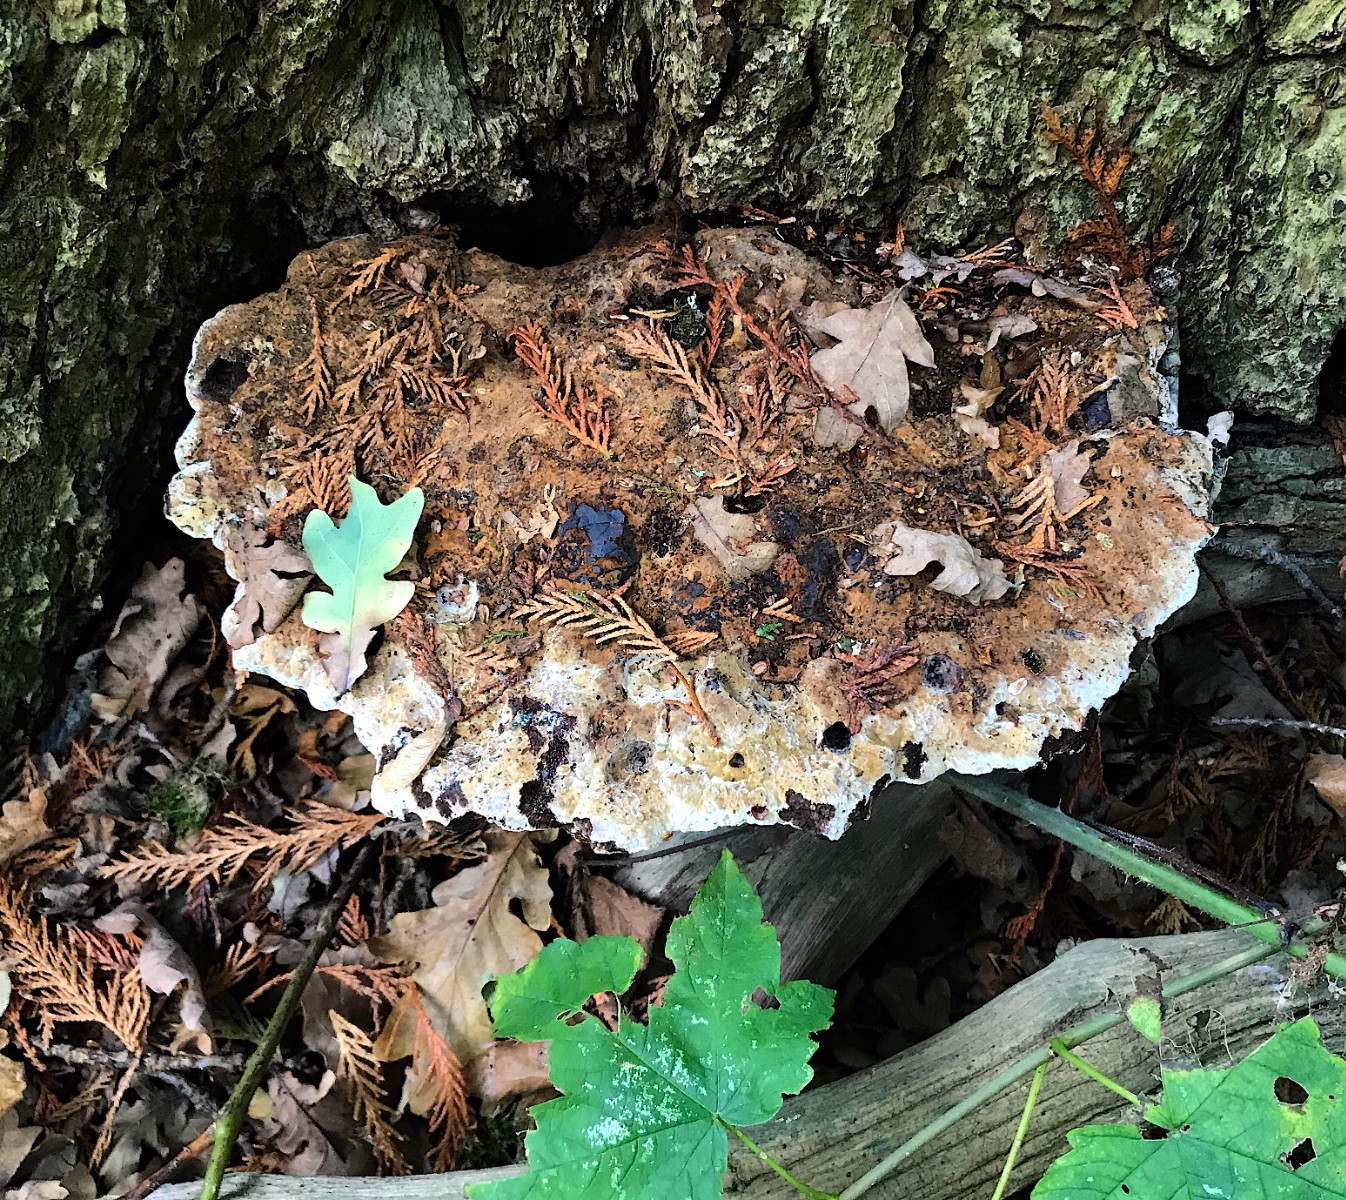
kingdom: Fungi
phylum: Basidiomycota
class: Agaricomycetes
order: Hymenochaetales
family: Hymenochaetaceae
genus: Pseudoinonotus
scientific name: Pseudoinonotus dryadeus
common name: ege-spejlporesvamp
